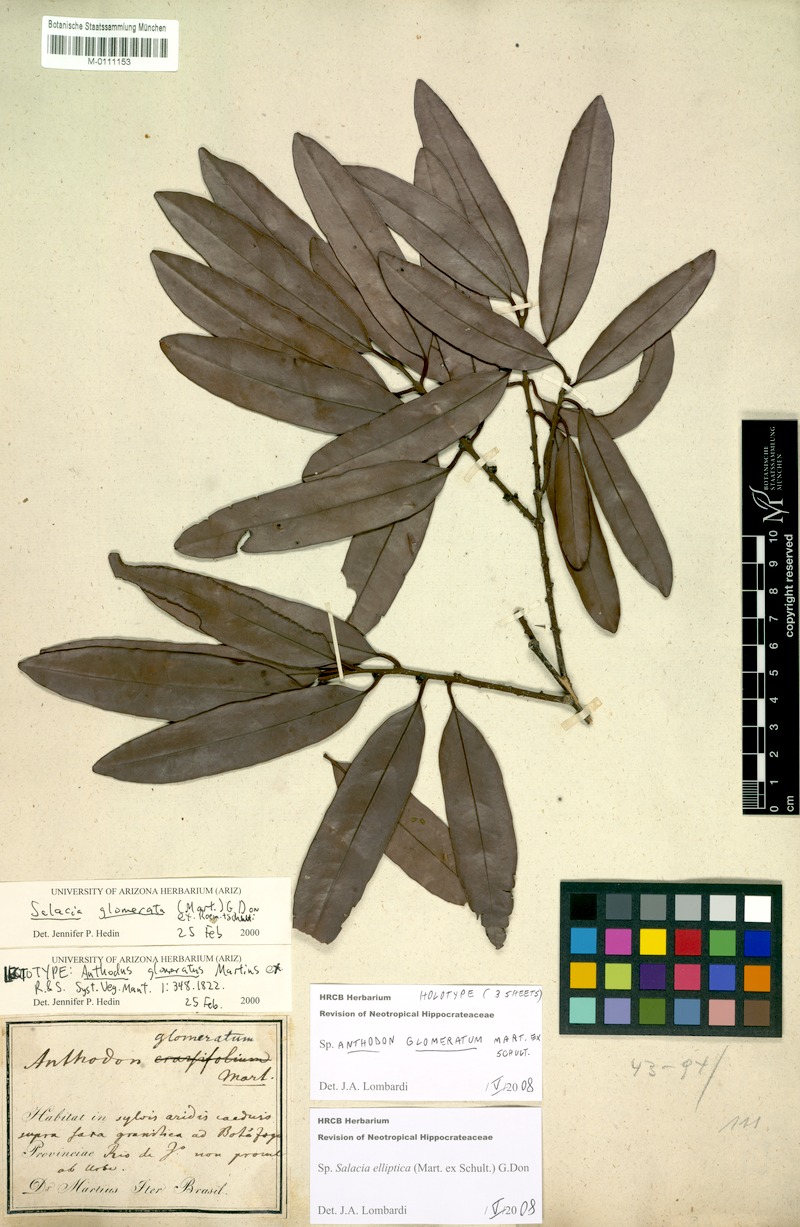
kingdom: Plantae
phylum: Tracheophyta
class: Magnoliopsida
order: Celastrales
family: Celastraceae
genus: Salacia
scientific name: Salacia elliptica
